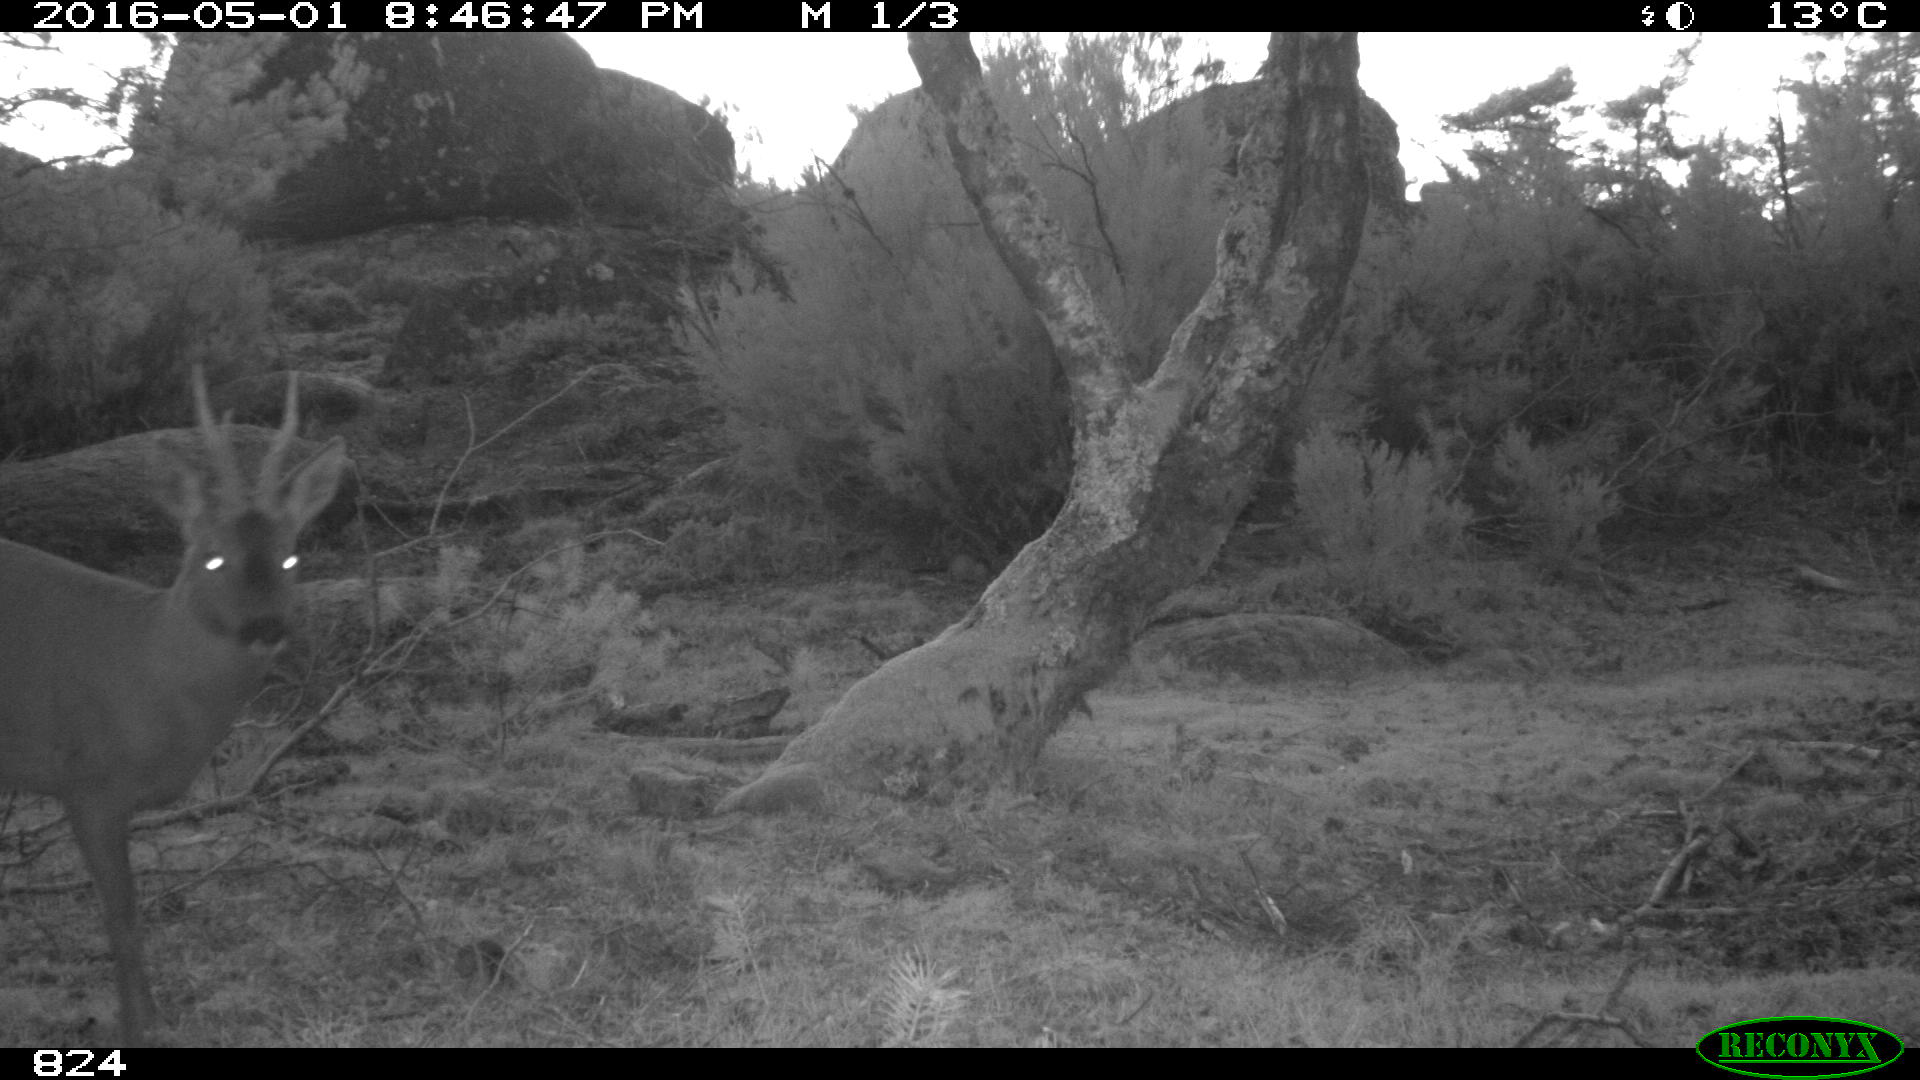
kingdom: Animalia
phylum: Chordata
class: Mammalia
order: Artiodactyla
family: Cervidae
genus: Capreolus
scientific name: Capreolus capreolus
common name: Western roe deer
